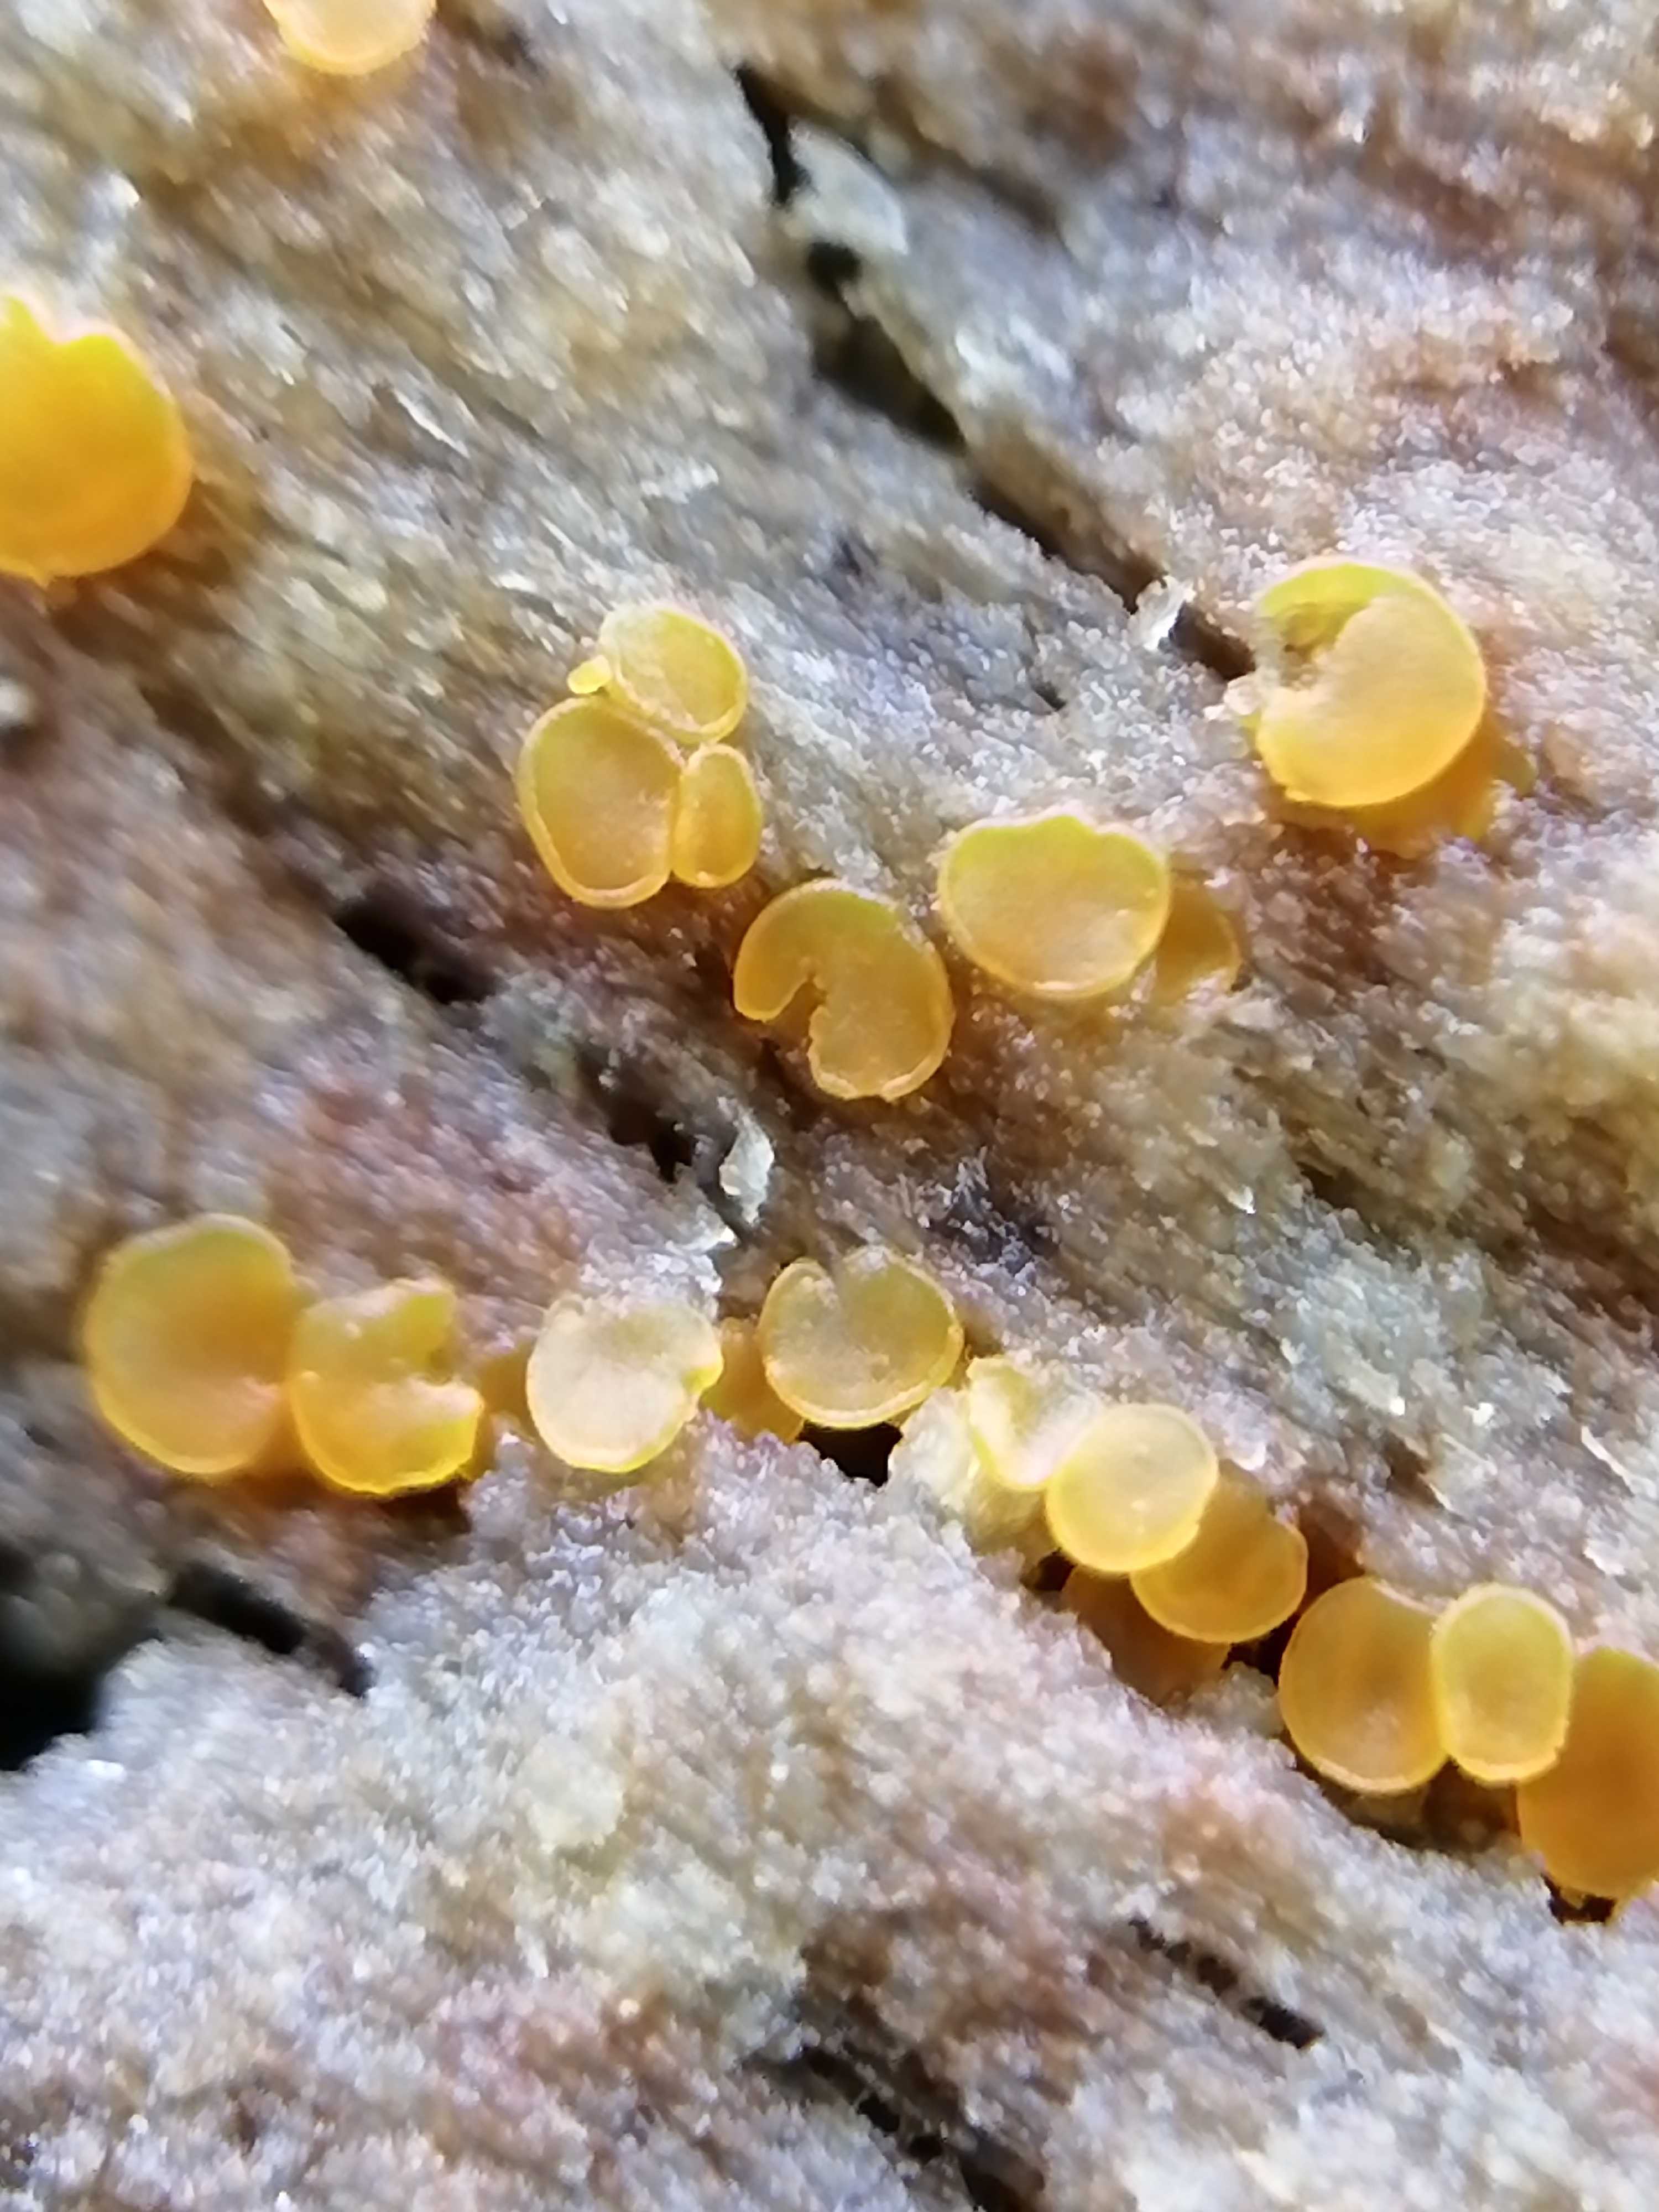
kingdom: Fungi
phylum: Ascomycota
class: Orbiliomycetes
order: Orbiliales
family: Orbiliaceae
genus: Orbilia
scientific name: Orbilia xanthostigma
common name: krumsporet voksskive
